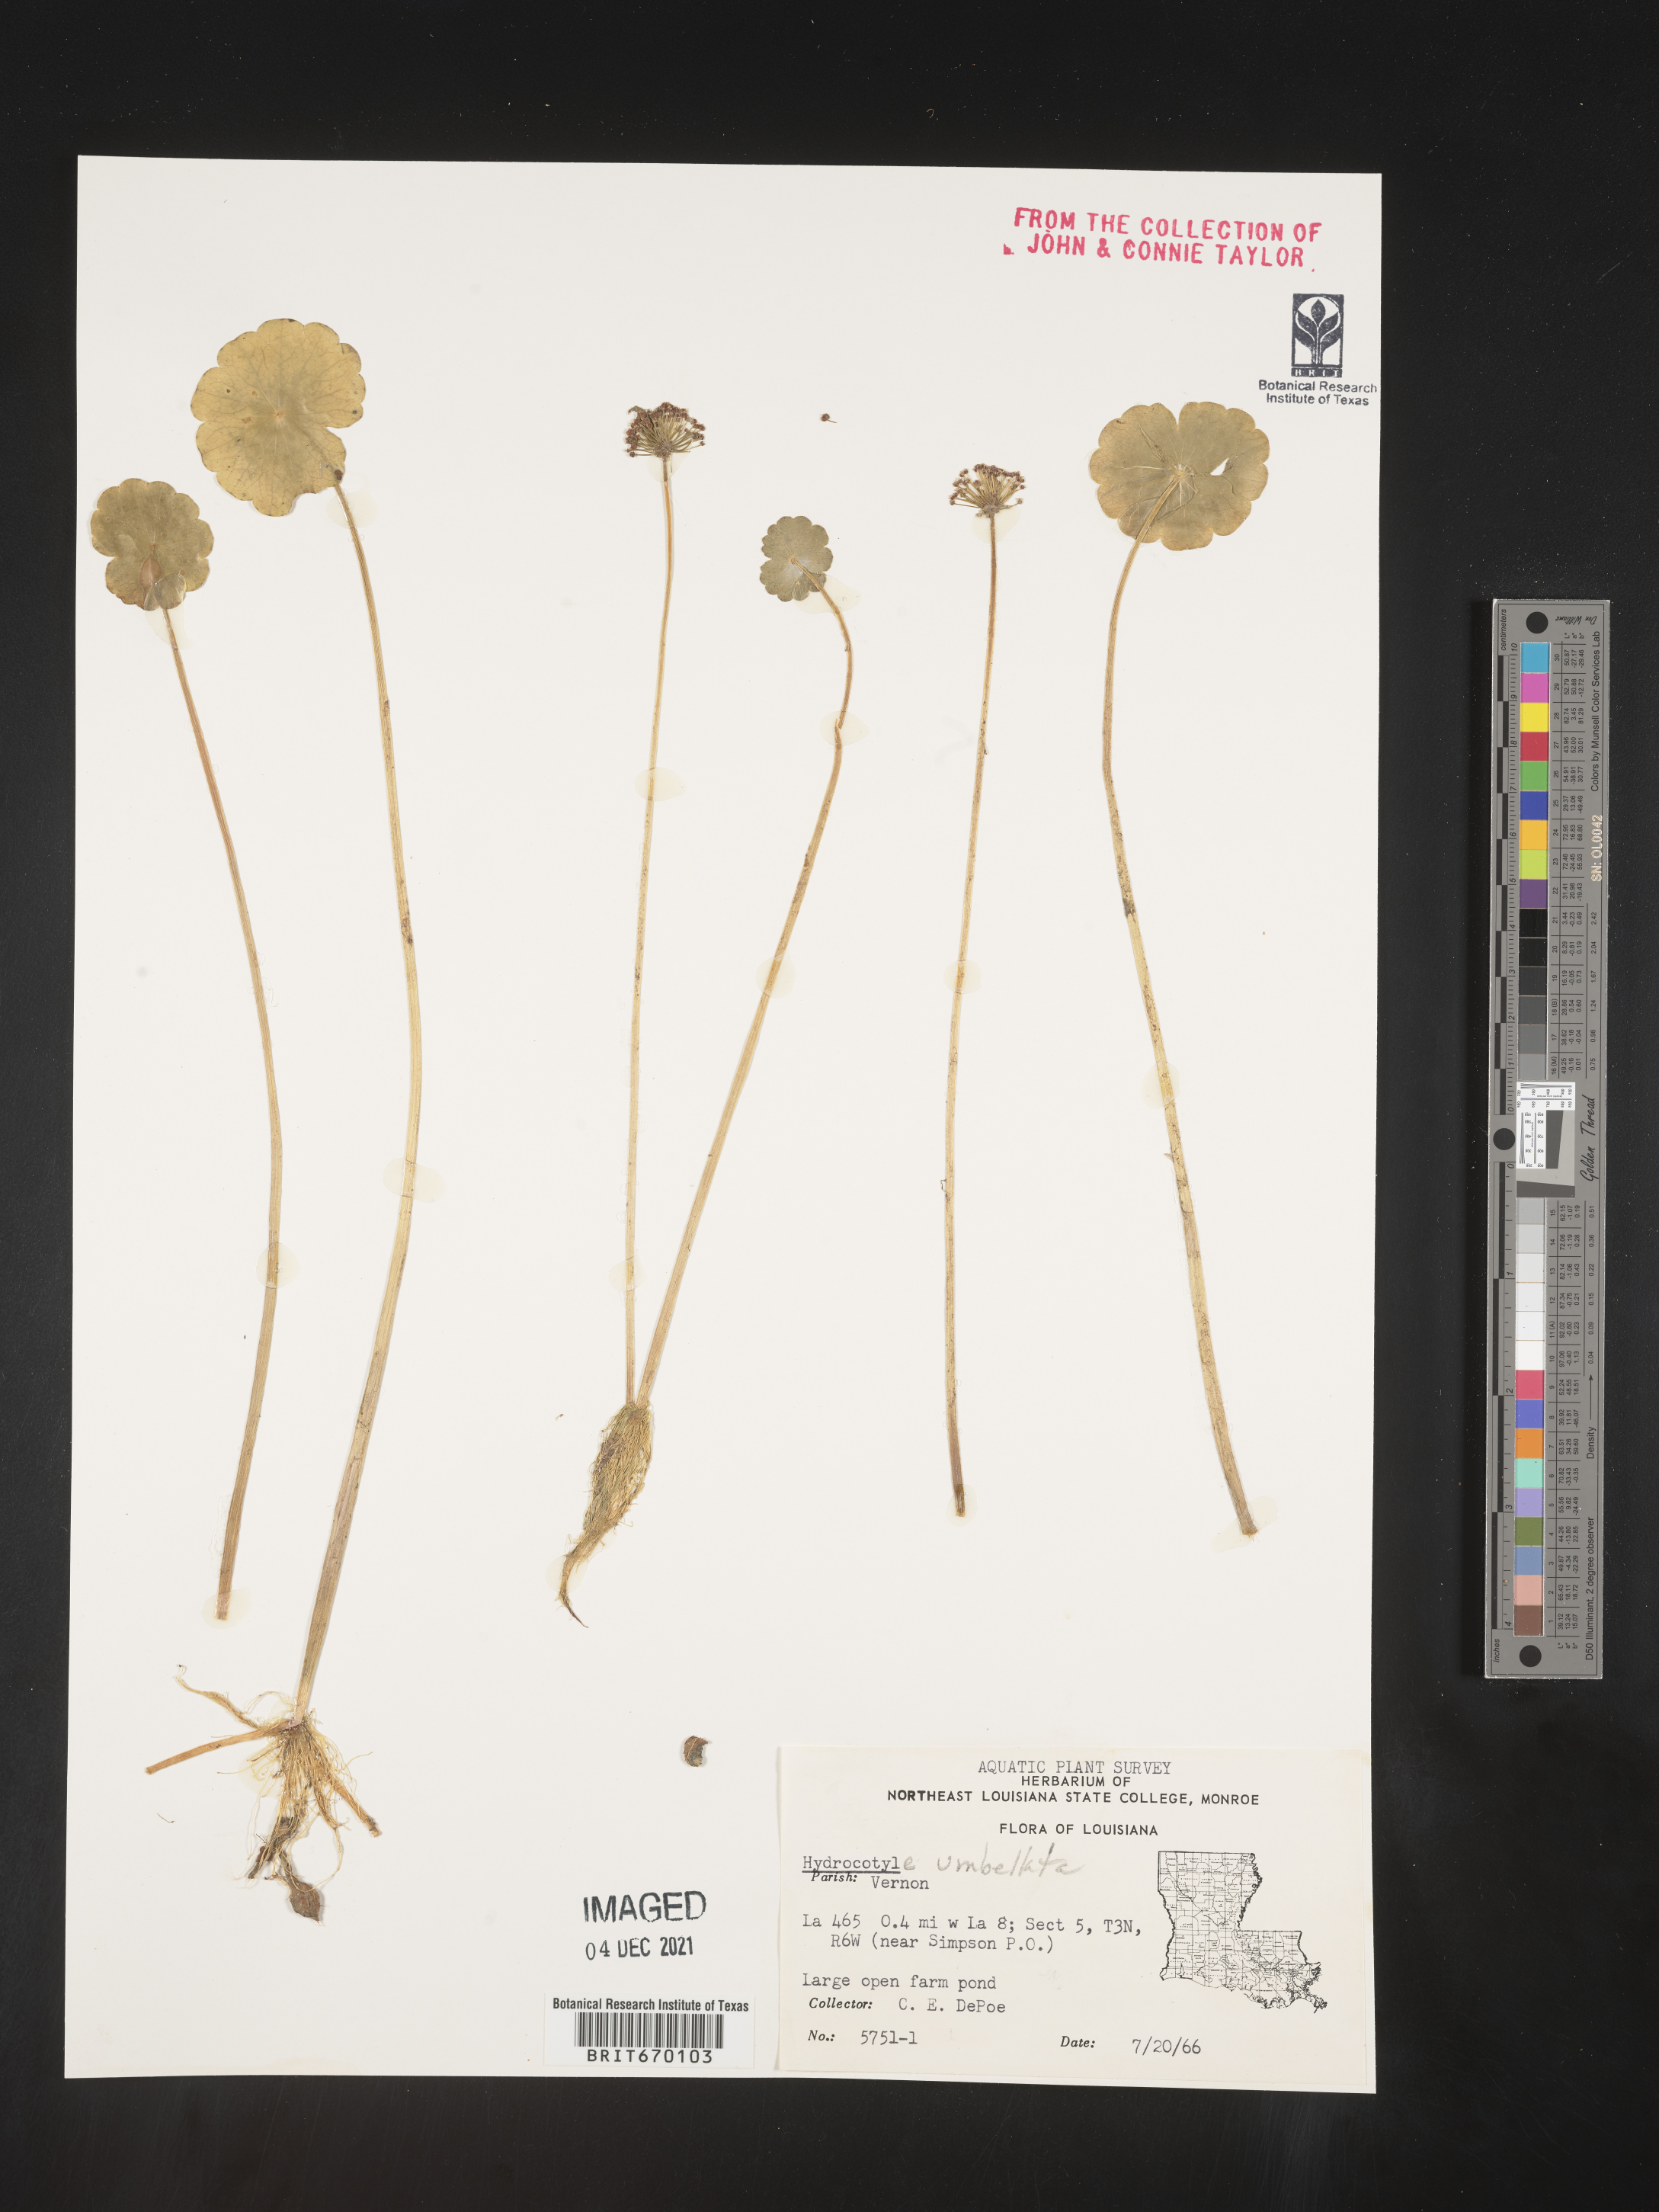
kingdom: Plantae
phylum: Tracheophyta
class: Magnoliopsida
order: Apiales
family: Araliaceae
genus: Hydrocotyle
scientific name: Hydrocotyle umbellata
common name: Water pennywort
